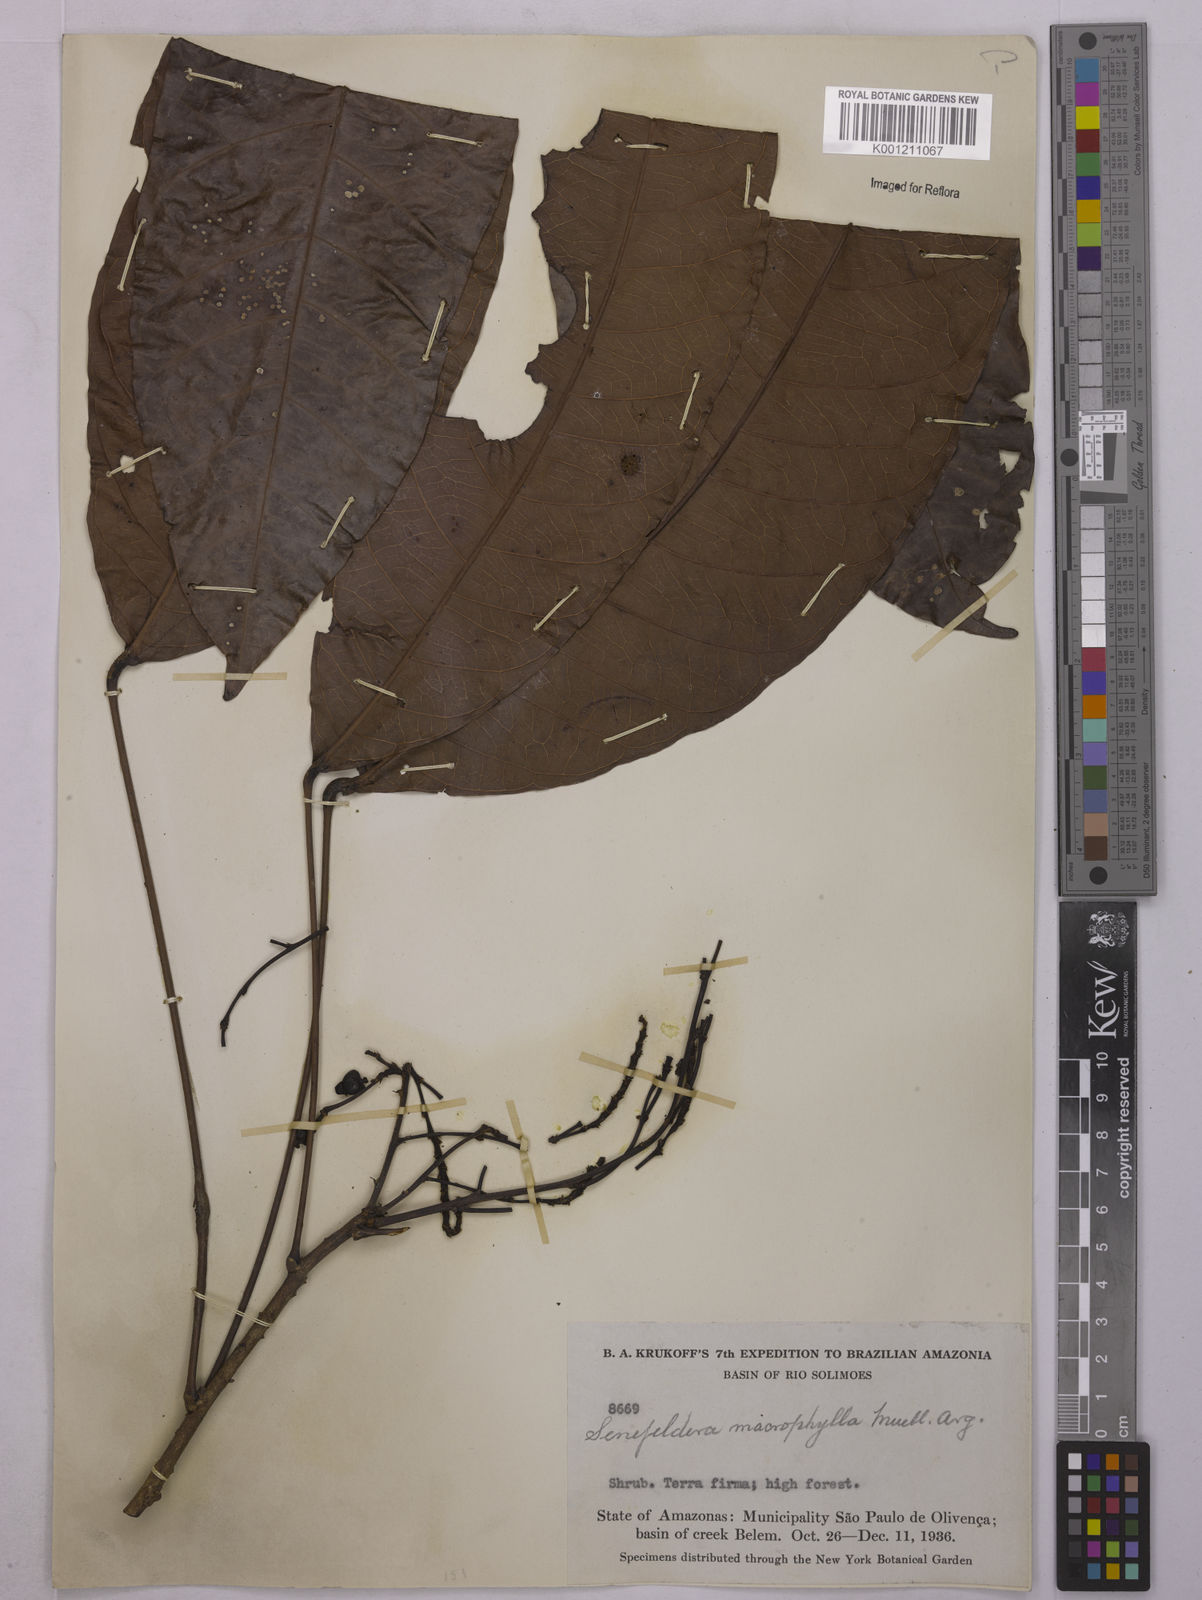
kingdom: Plantae
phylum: Tracheophyta
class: Magnoliopsida
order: Malpighiales
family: Euphorbiaceae
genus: Rhodothyrsus
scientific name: Rhodothyrsus macrophyllus
